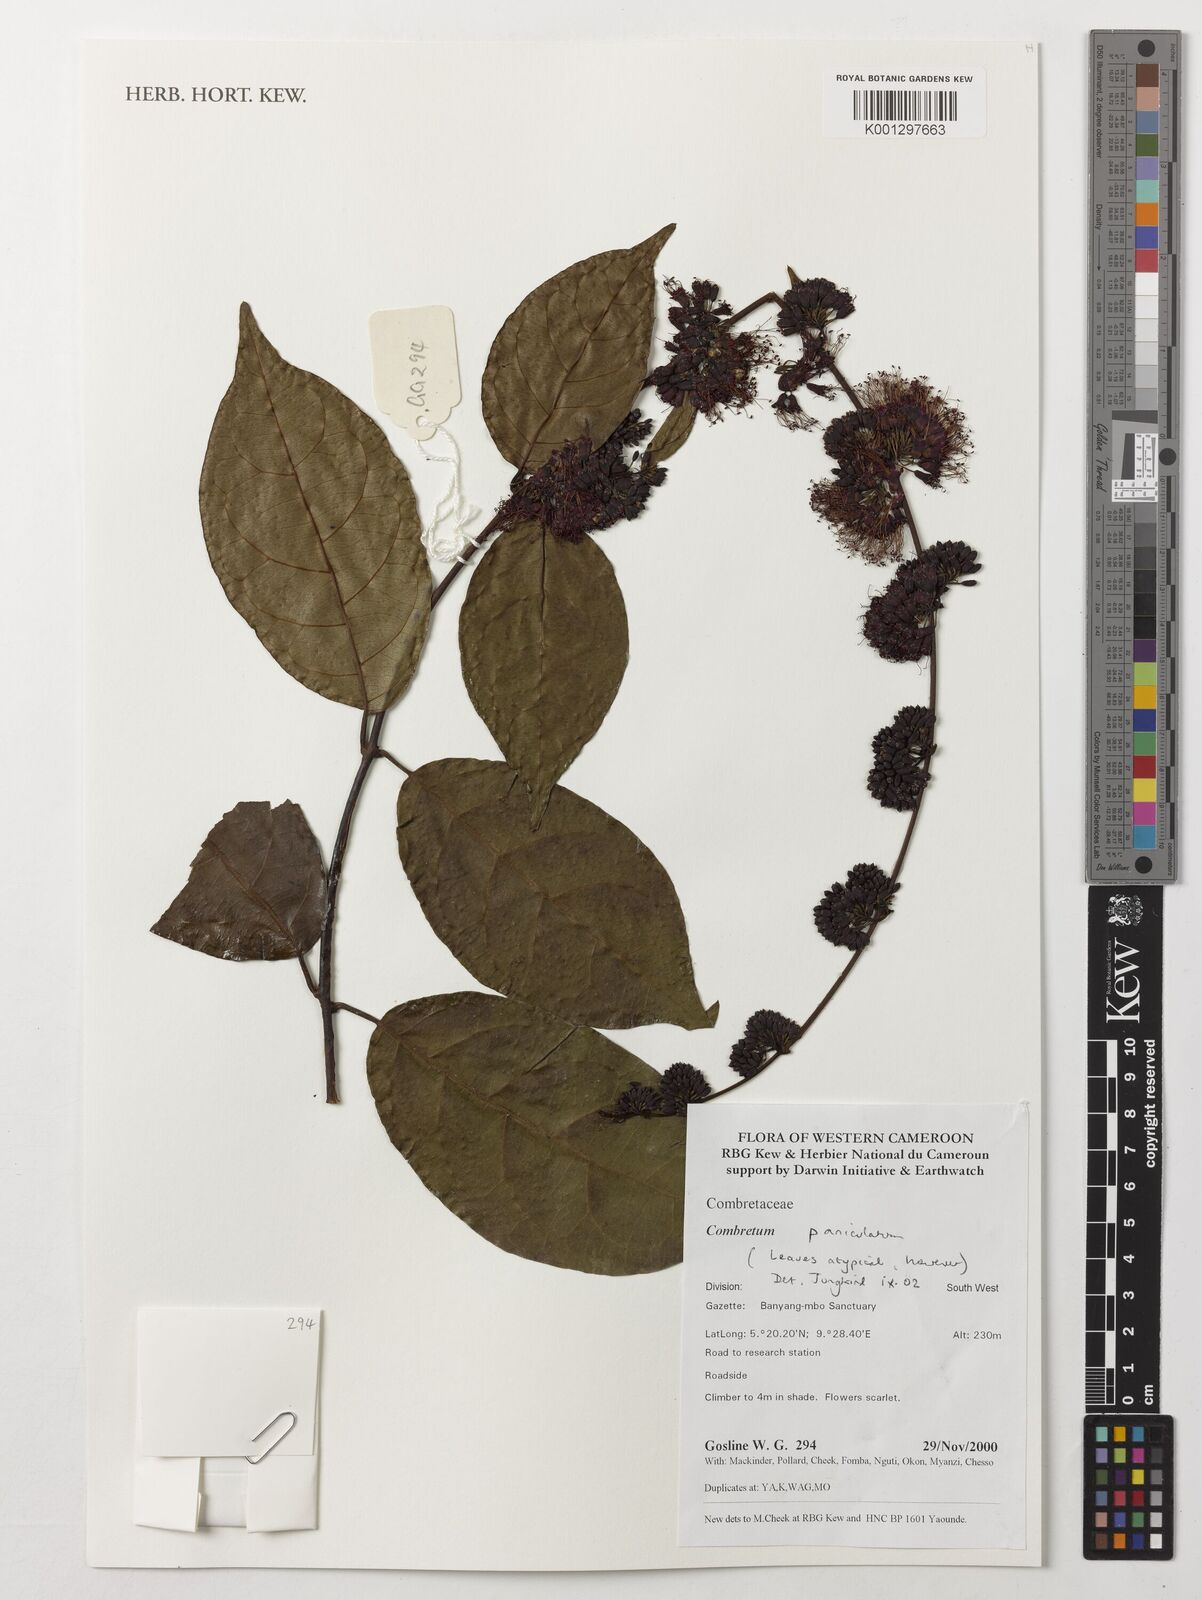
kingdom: Plantae
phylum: Tracheophyta
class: Magnoliopsida
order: Myrtales
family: Combretaceae
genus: Combretum
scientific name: Combretum paniculatum
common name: Fire vine
